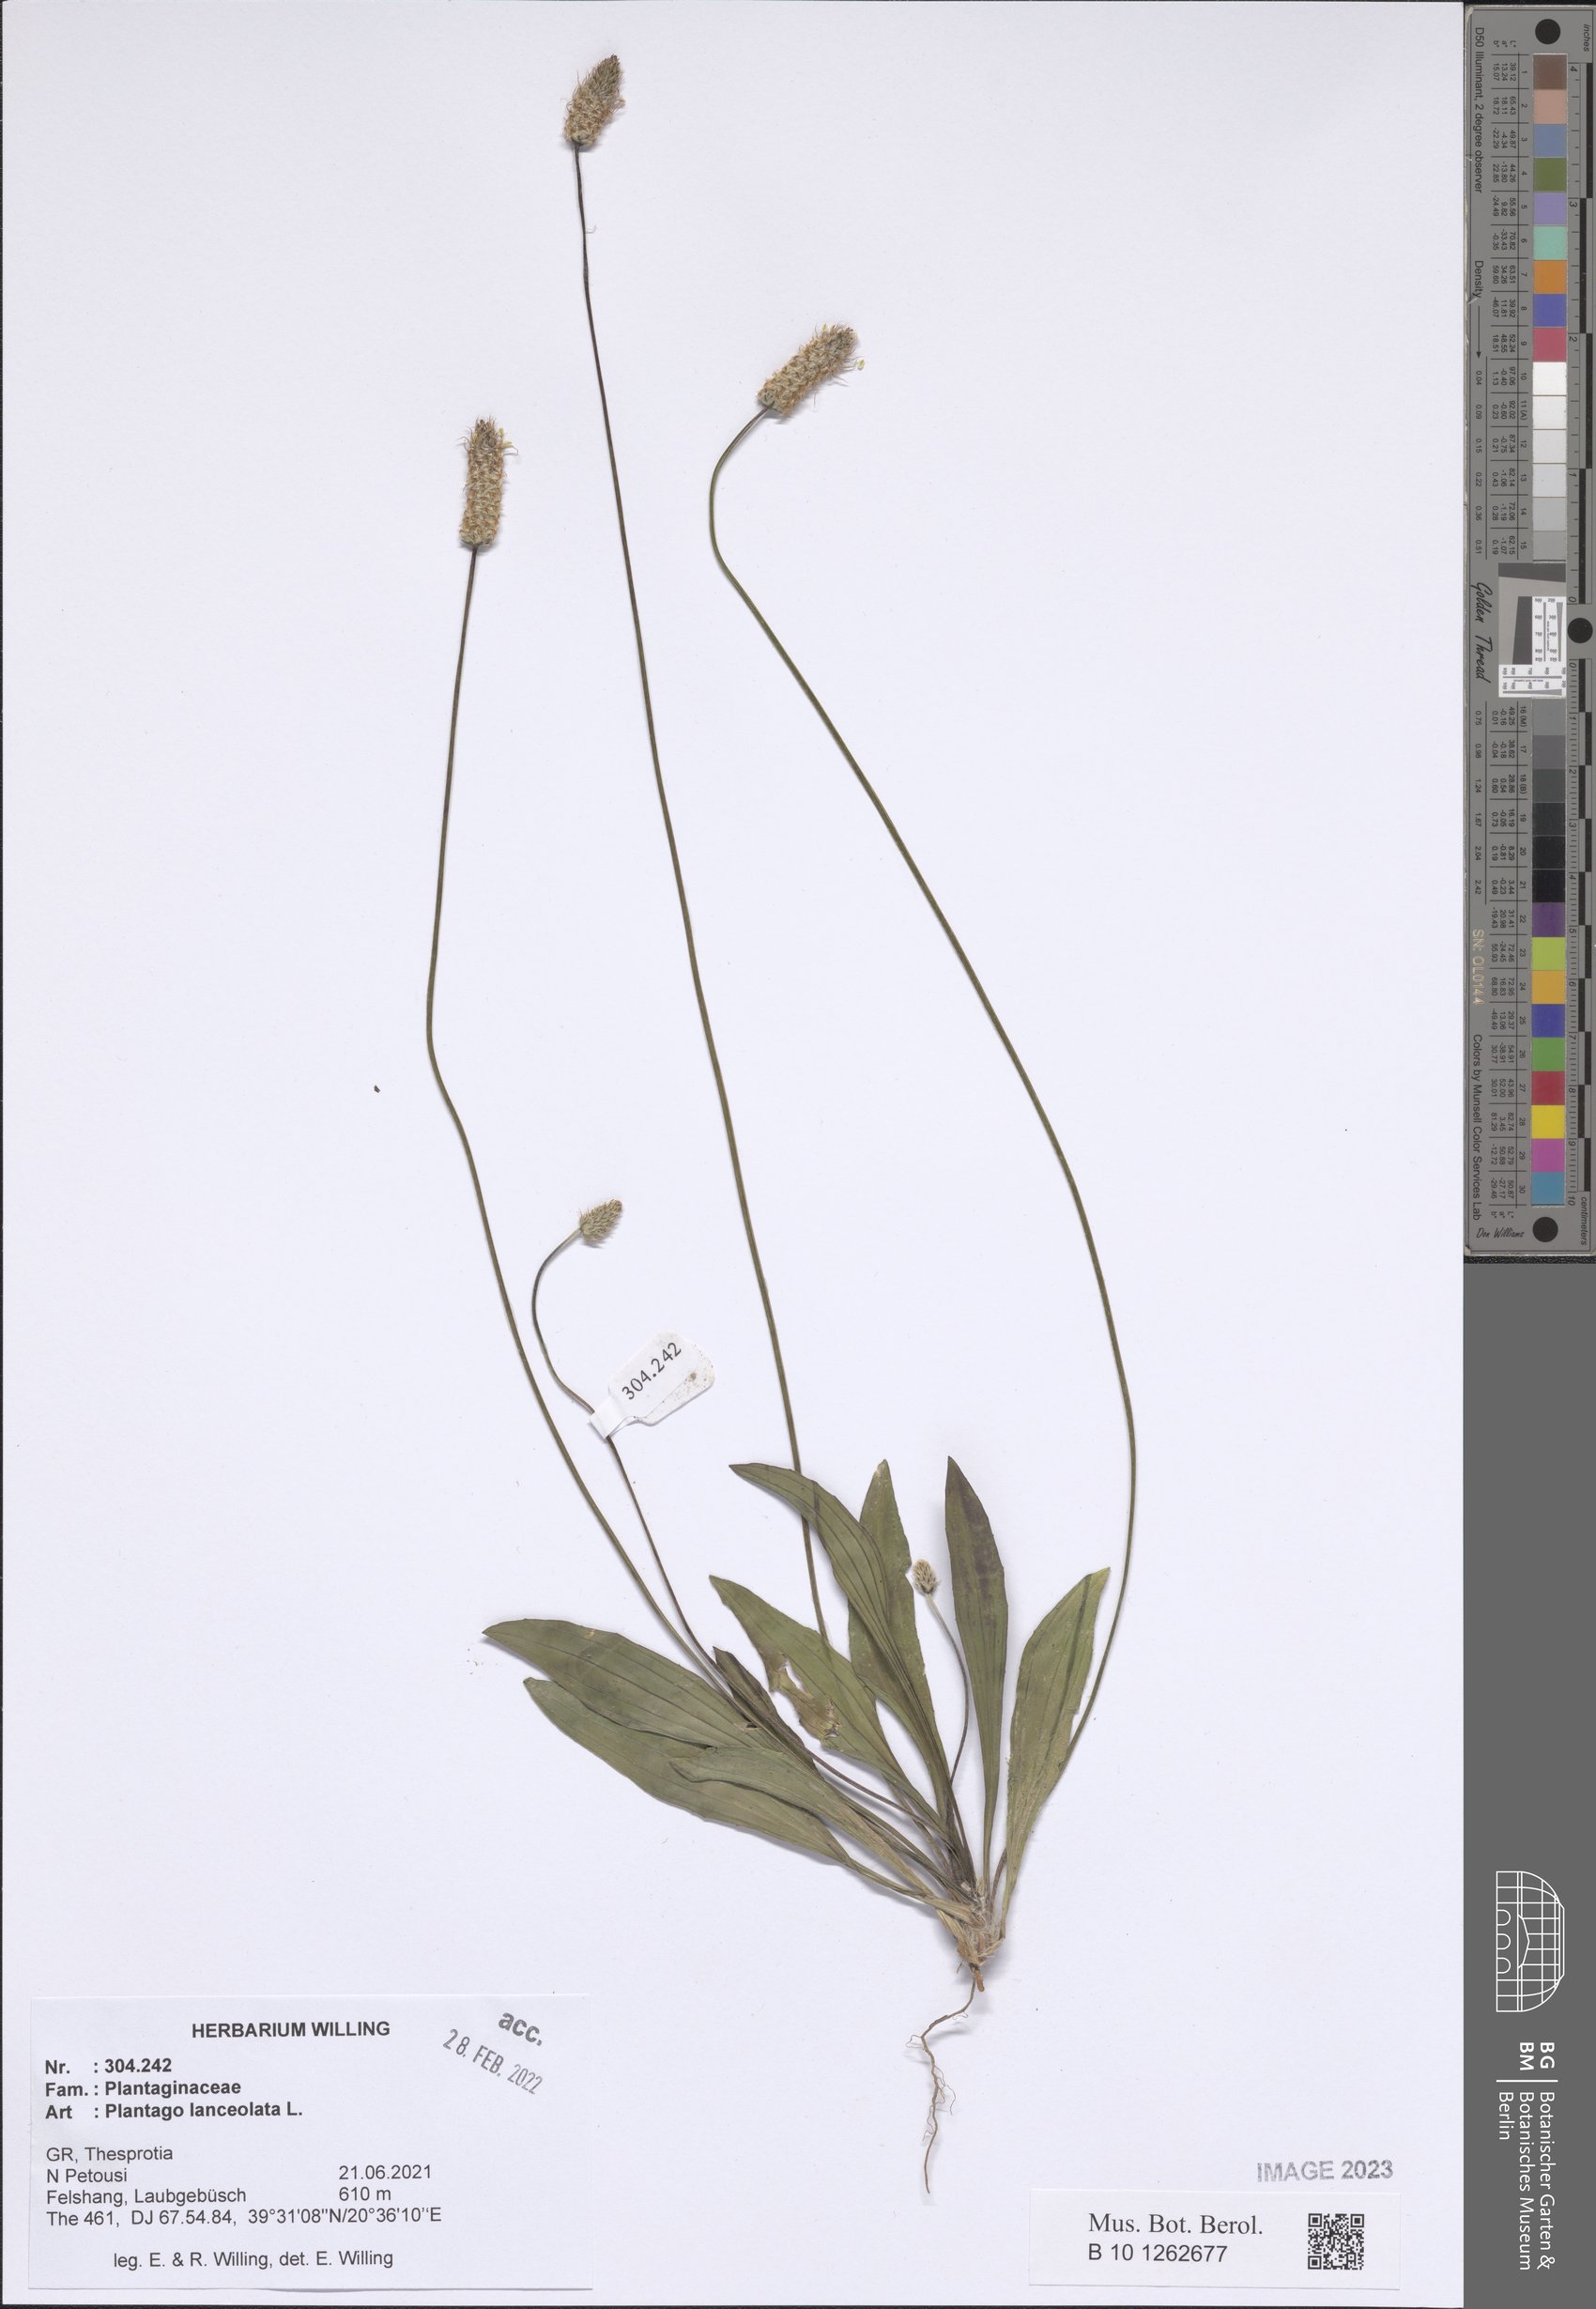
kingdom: Plantae
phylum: Tracheophyta
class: Magnoliopsida
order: Lamiales
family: Plantaginaceae
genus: Plantago
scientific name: Plantago lanceolata
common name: Ribwort plantain
